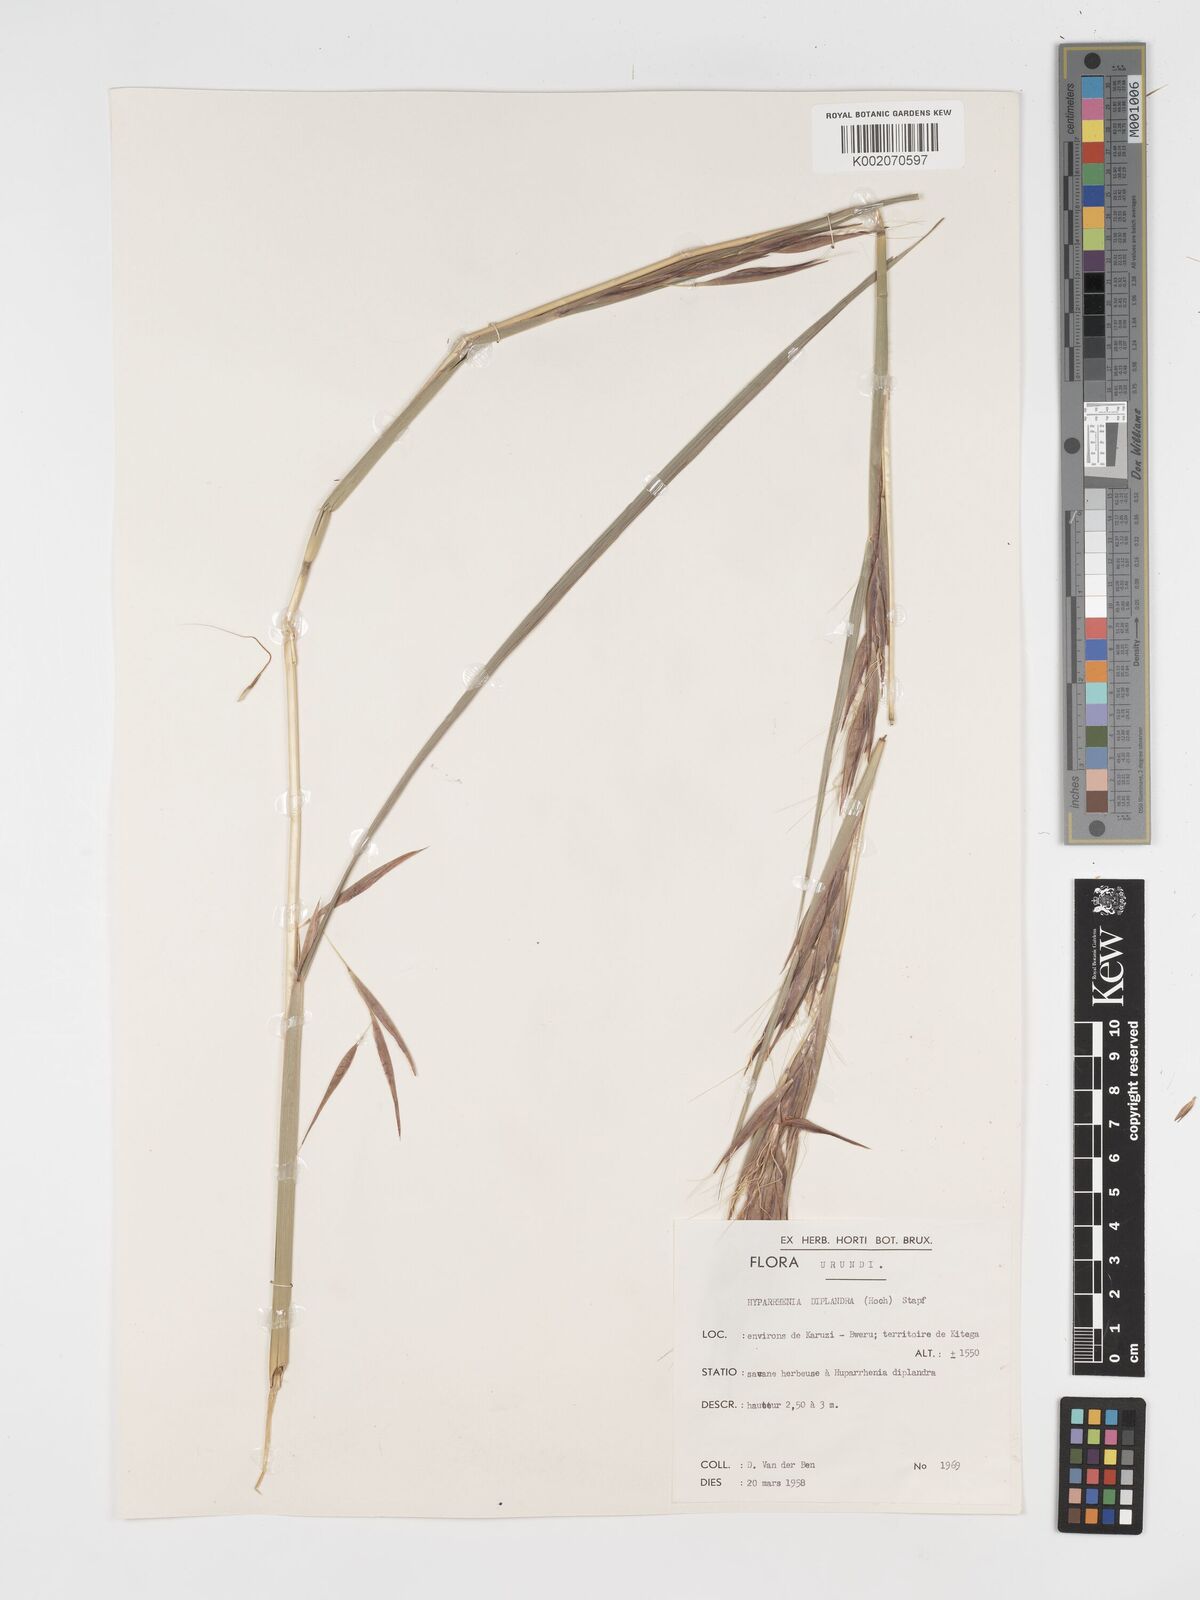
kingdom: Plantae
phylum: Tracheophyta
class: Liliopsida
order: Poales
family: Poaceae
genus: Hyparrhenia
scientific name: Hyparrhenia diplandra
